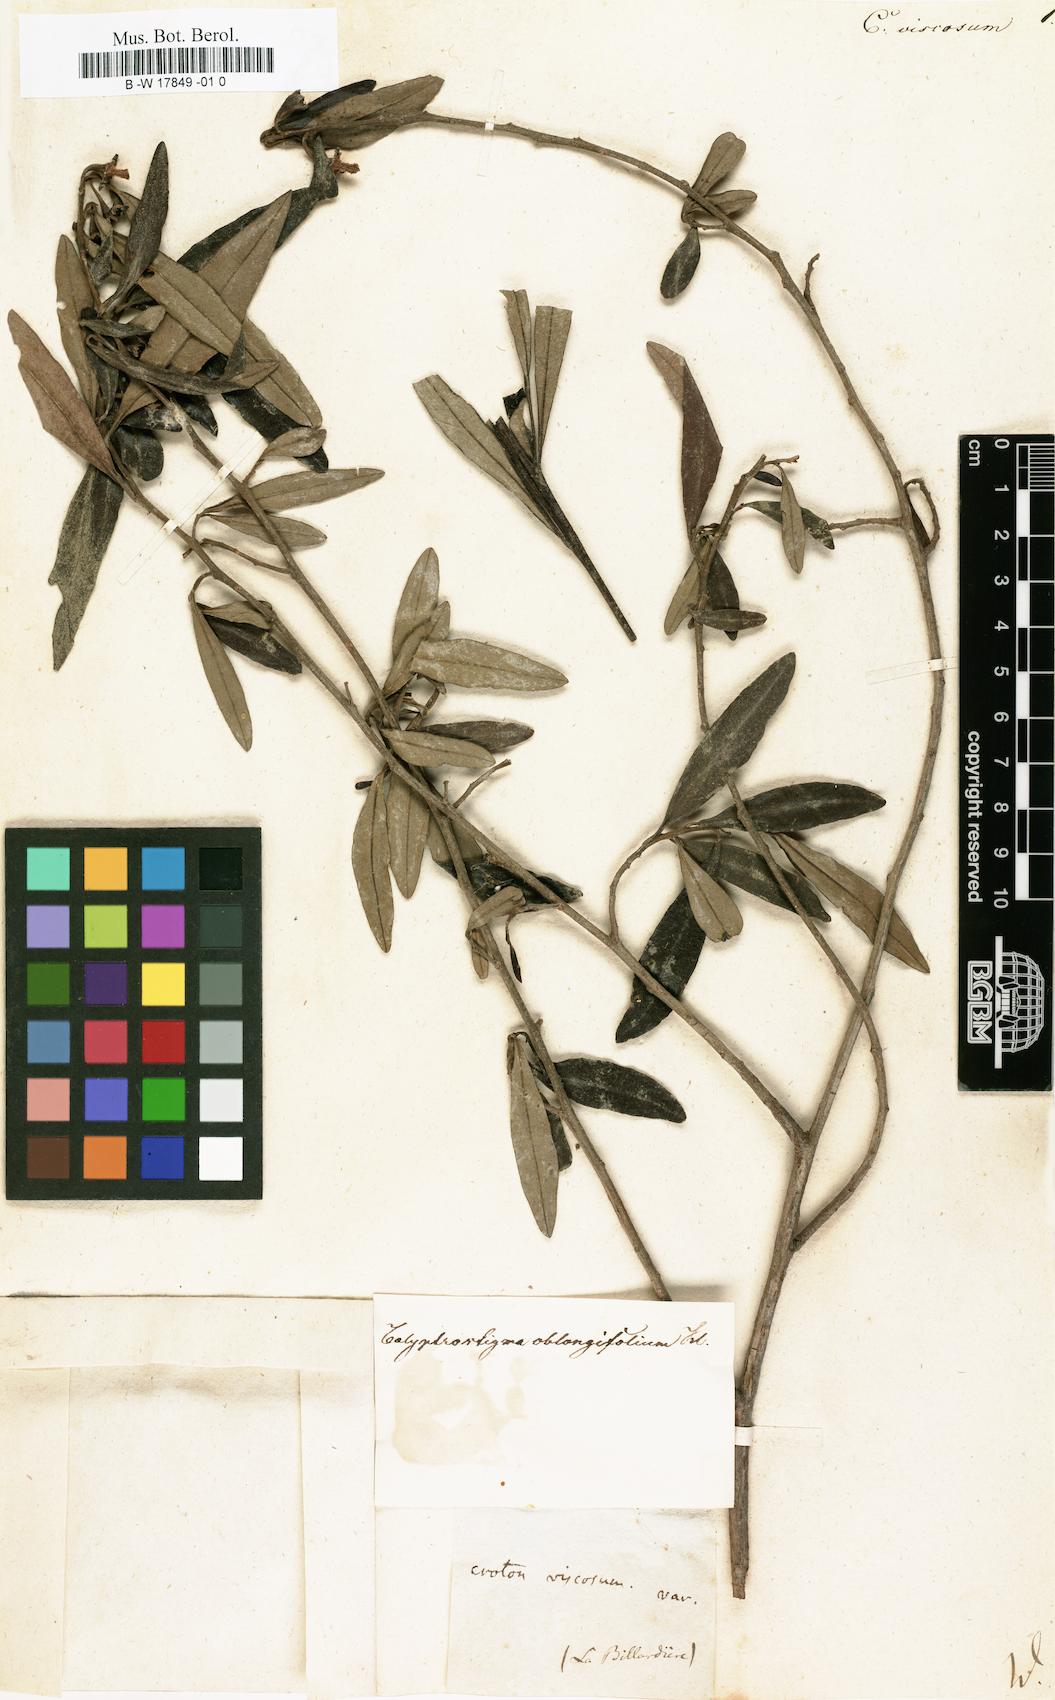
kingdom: Plantae
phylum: Tracheophyta
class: Magnoliopsida
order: Malpighiales
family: Euphorbiaceae
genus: Beyeria
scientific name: Beyeria viscosa
